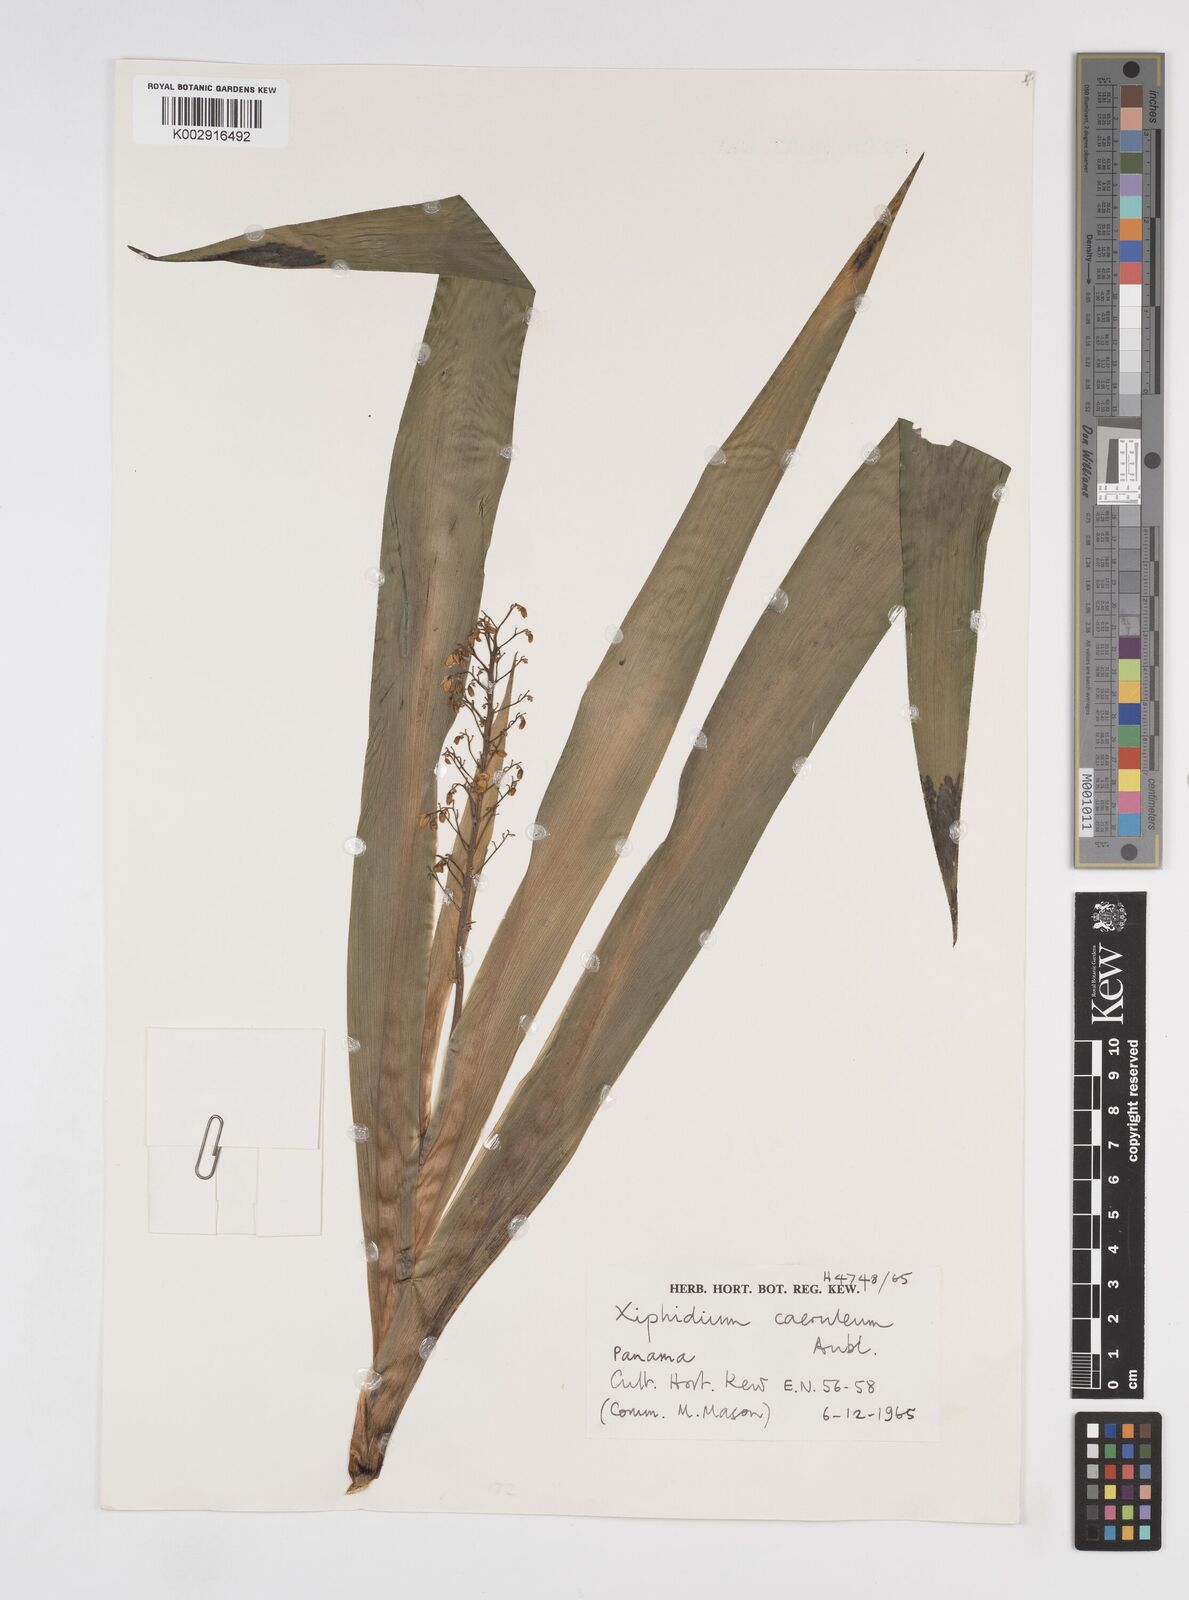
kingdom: Plantae
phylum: Tracheophyta
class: Liliopsida
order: Commelinales
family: Haemodoraceae
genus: Xiphidium
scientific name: Xiphidium caeruleum
